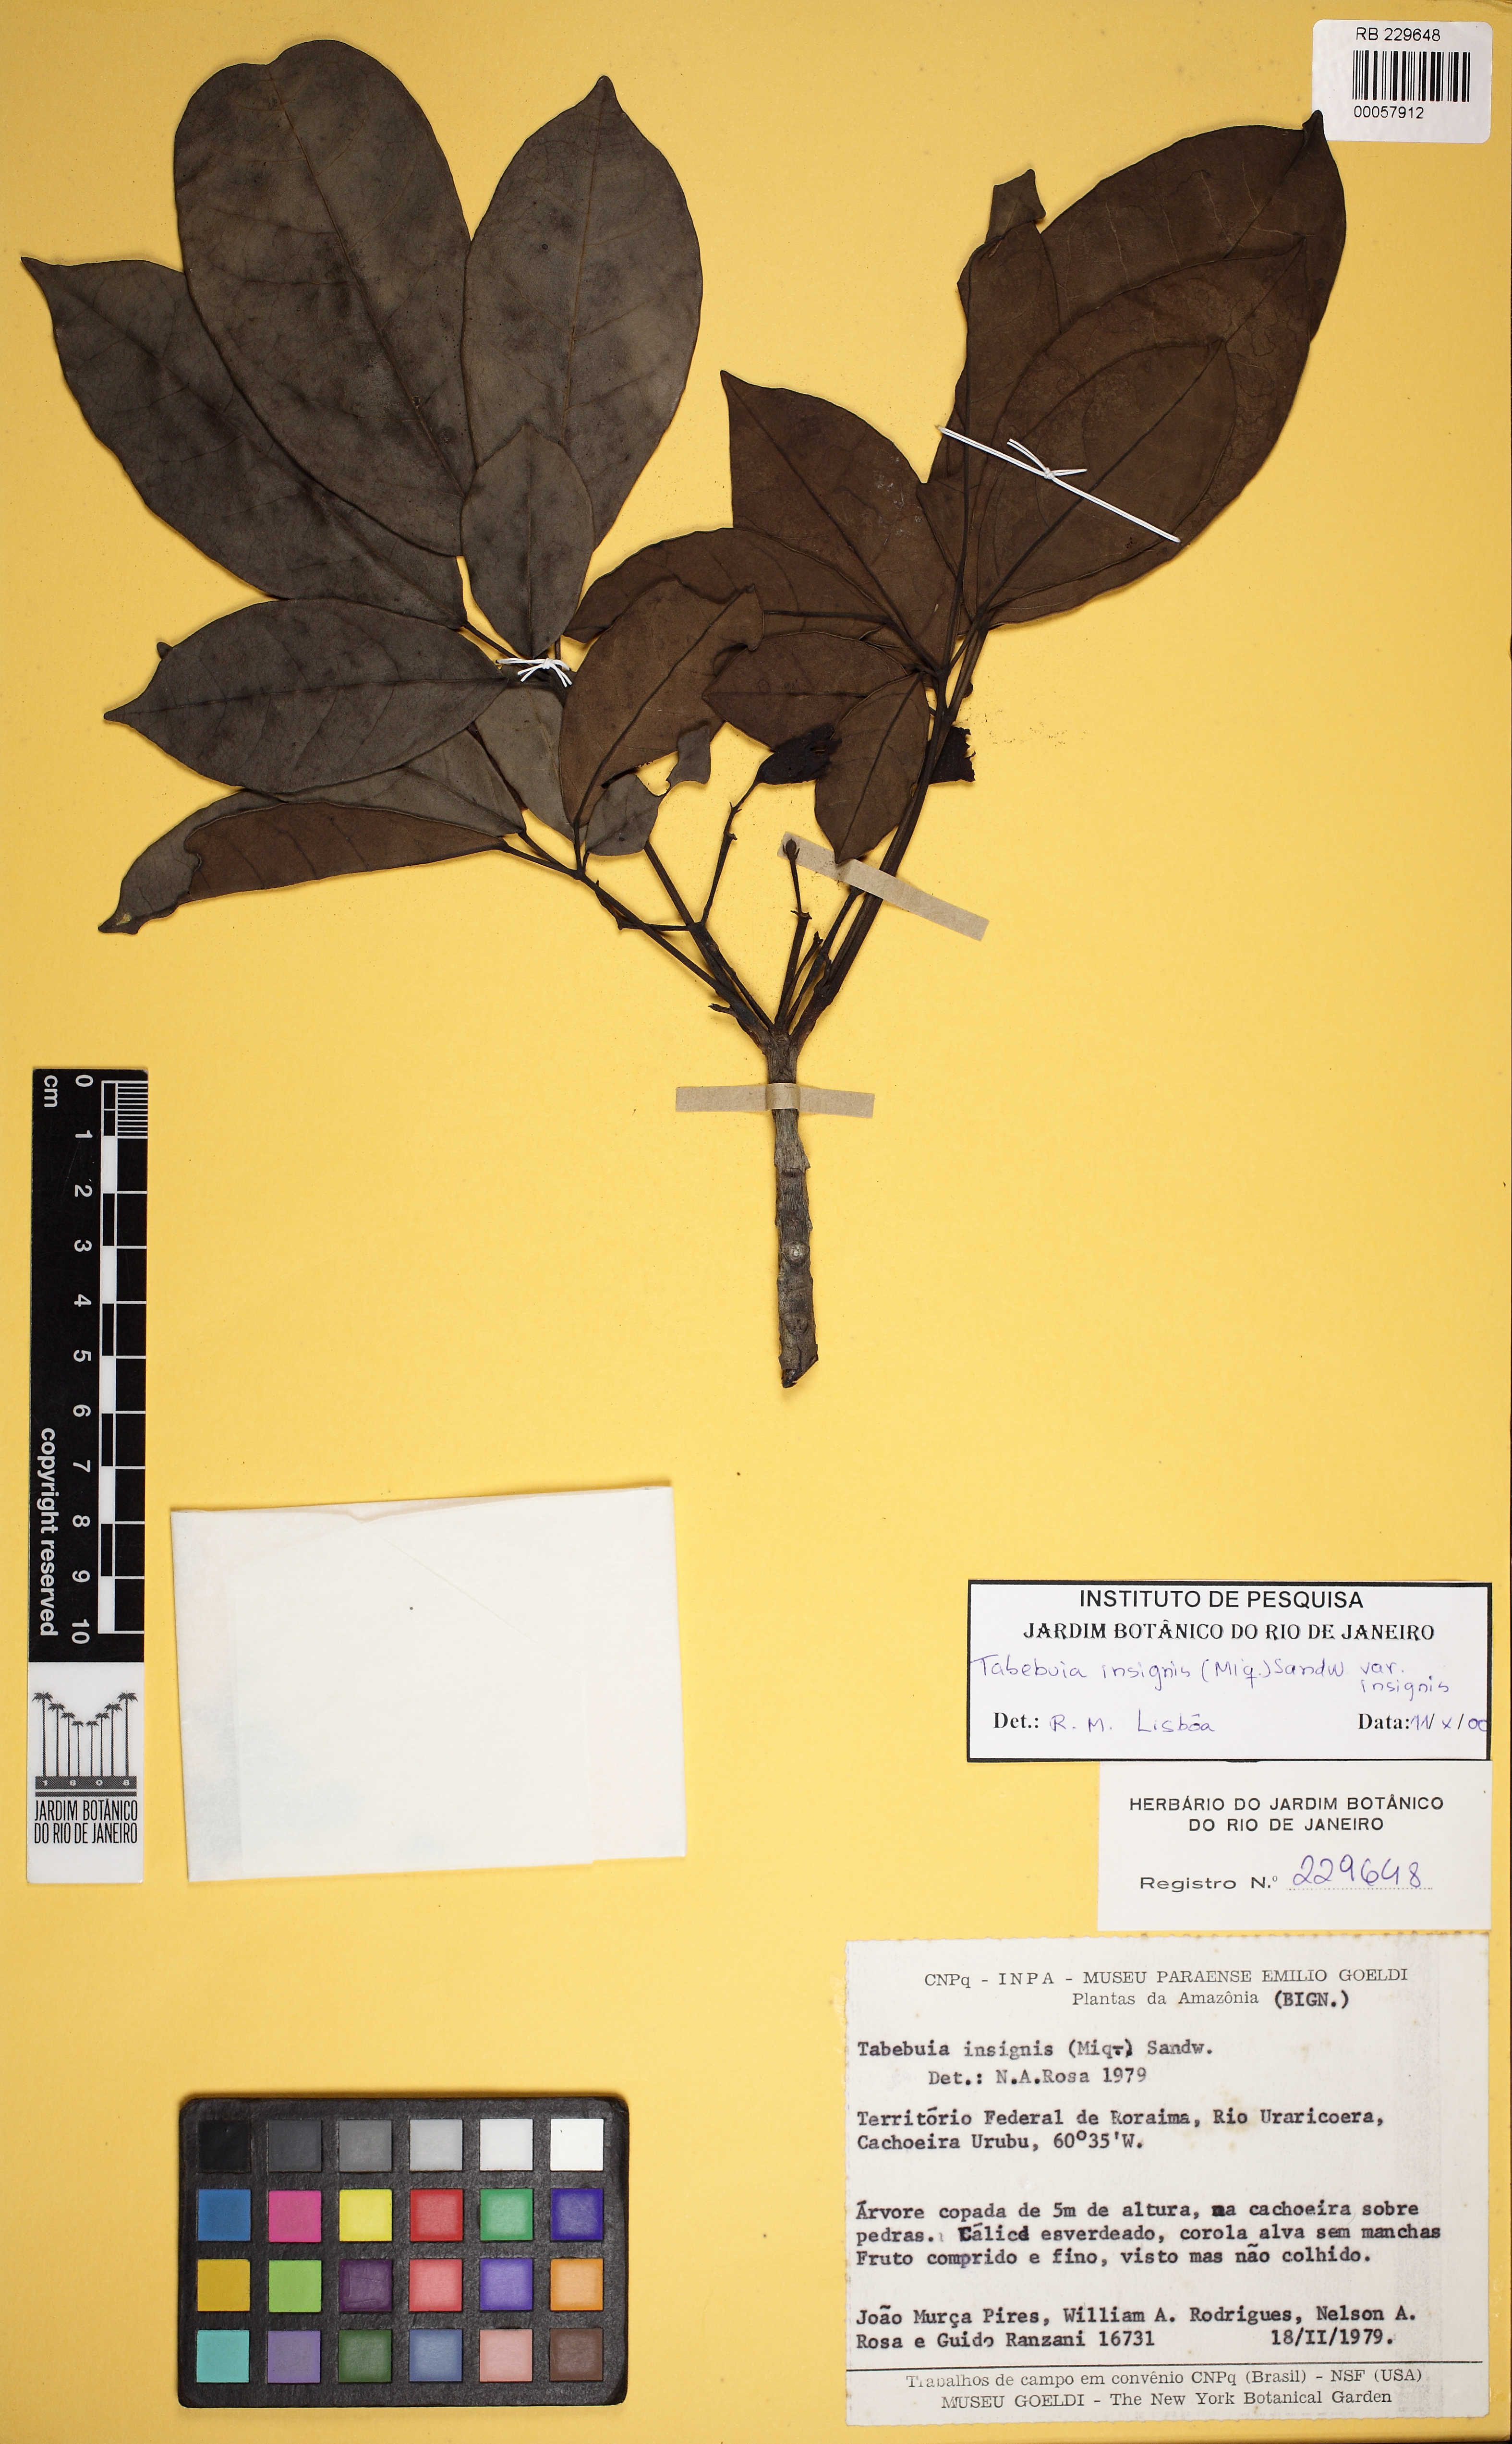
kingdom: Plantae
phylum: Tracheophyta
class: Magnoliopsida
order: Lamiales
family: Bignoniaceae
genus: Tabebuia
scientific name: Tabebuia insignis
